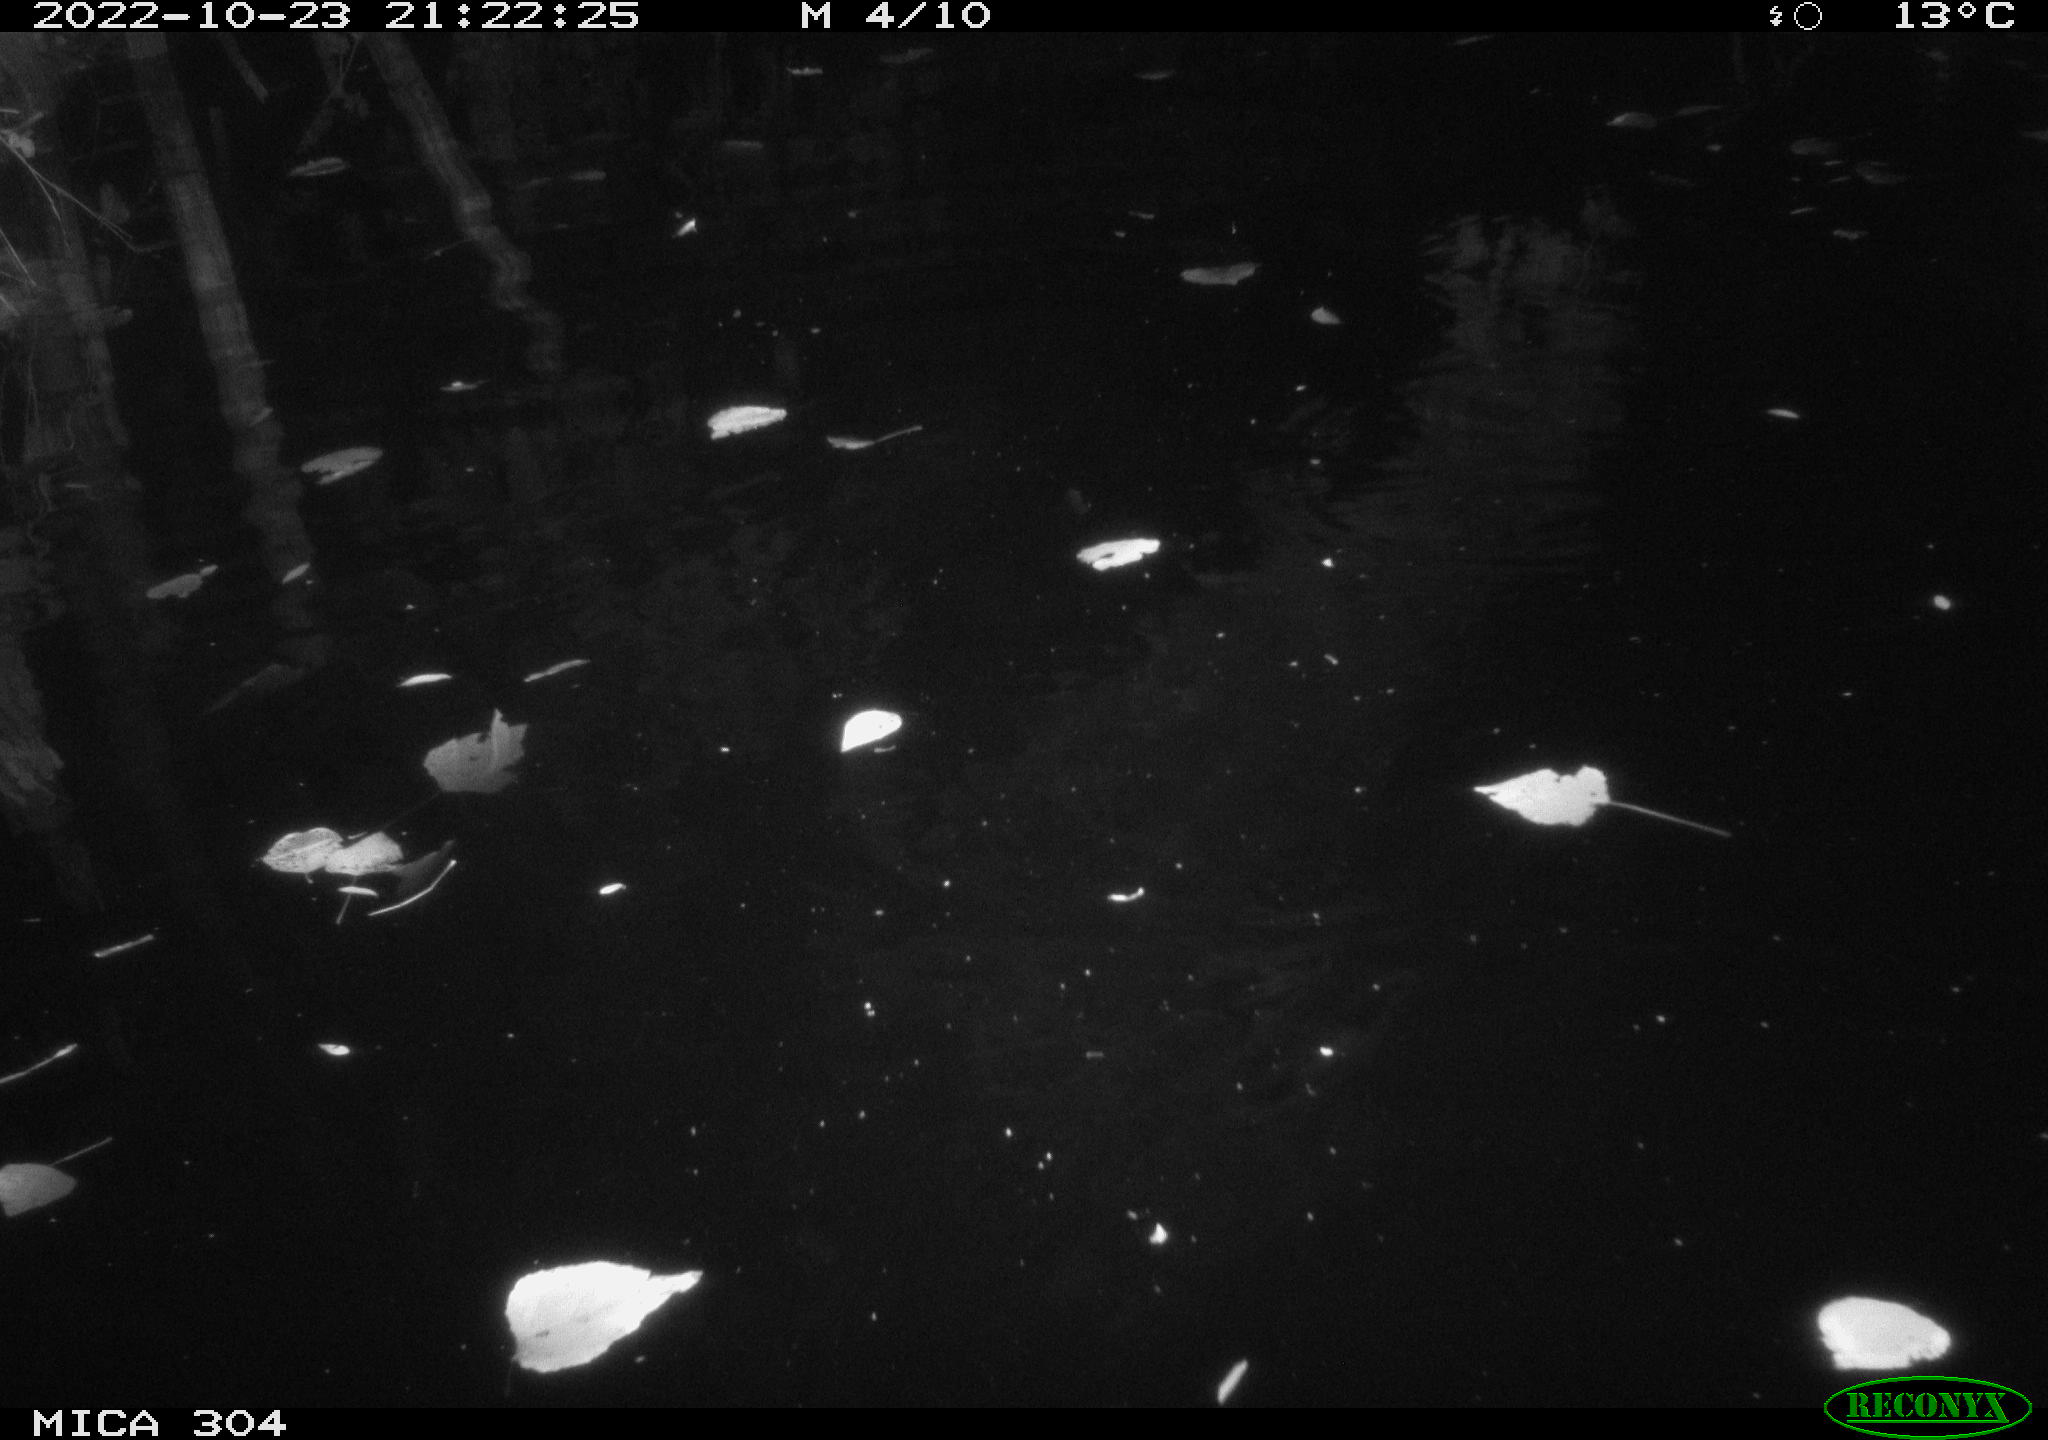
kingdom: Animalia
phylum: Chordata
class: Mammalia
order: Rodentia
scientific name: Rodentia
